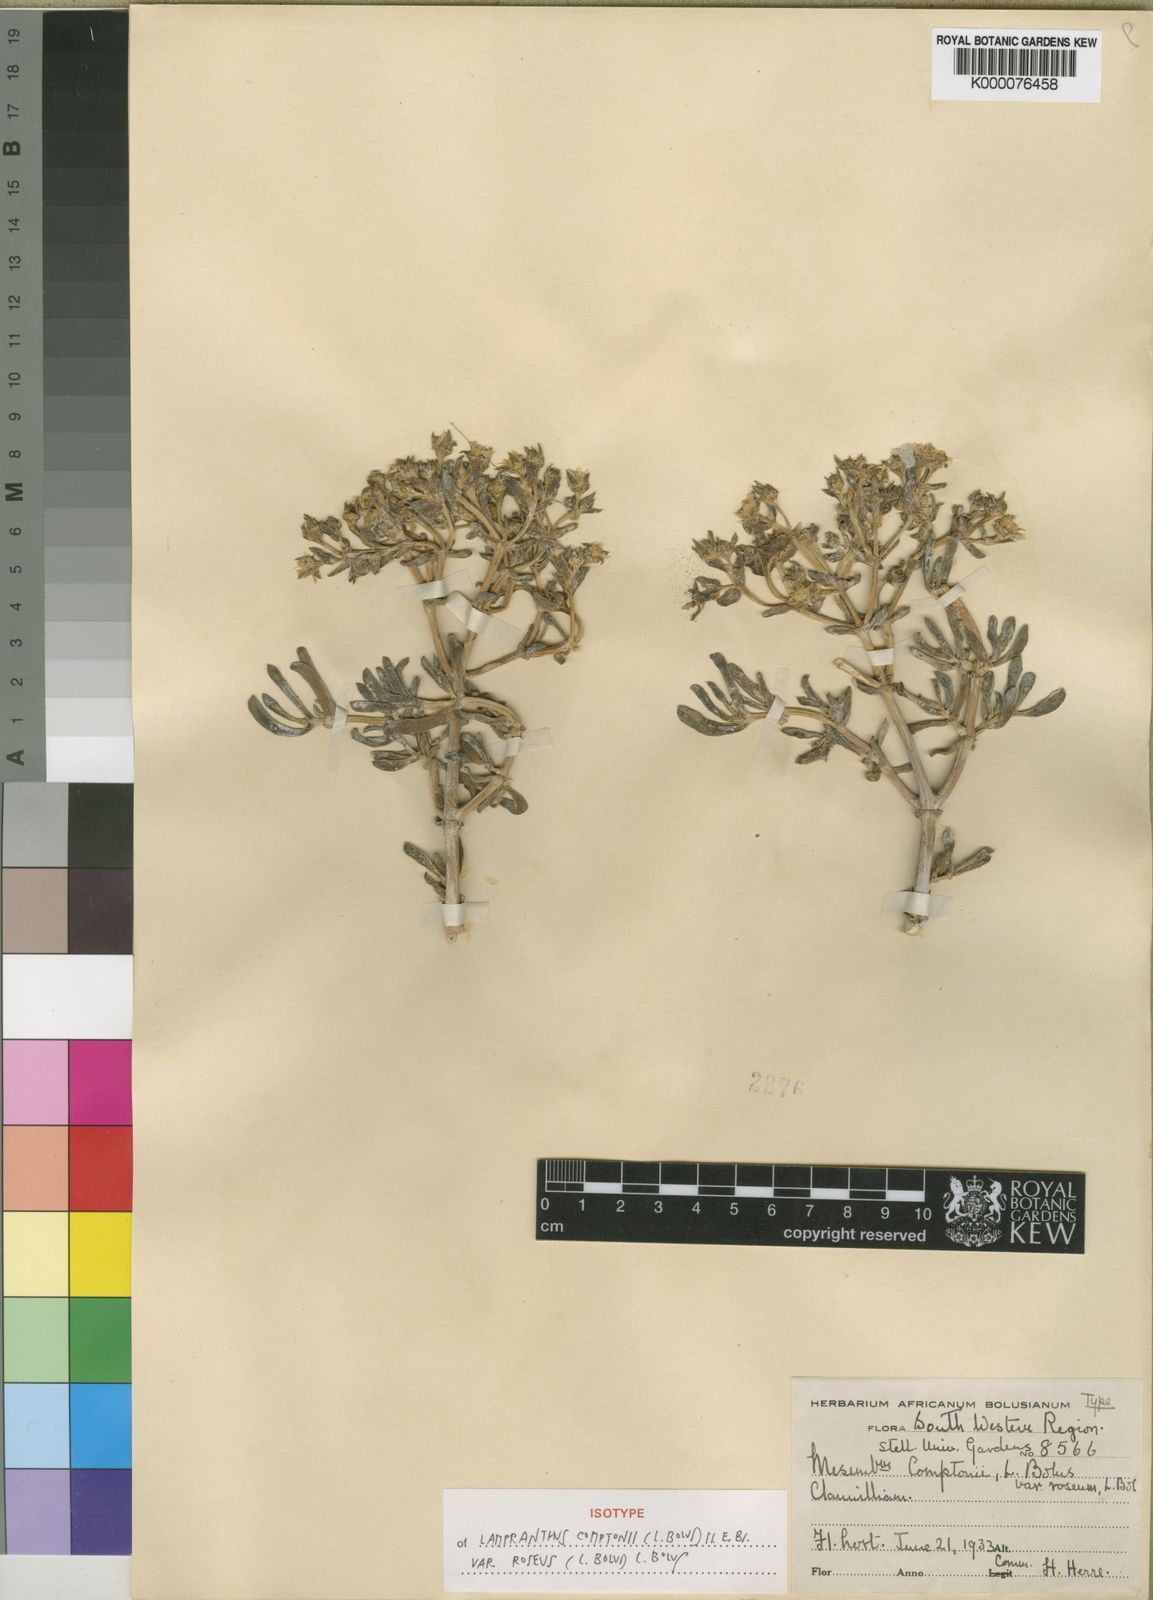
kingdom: Plantae
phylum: Tracheophyta
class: Magnoliopsida
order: Caryophyllales
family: Aizoaceae
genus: Oscularia
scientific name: Oscularia comptonii
